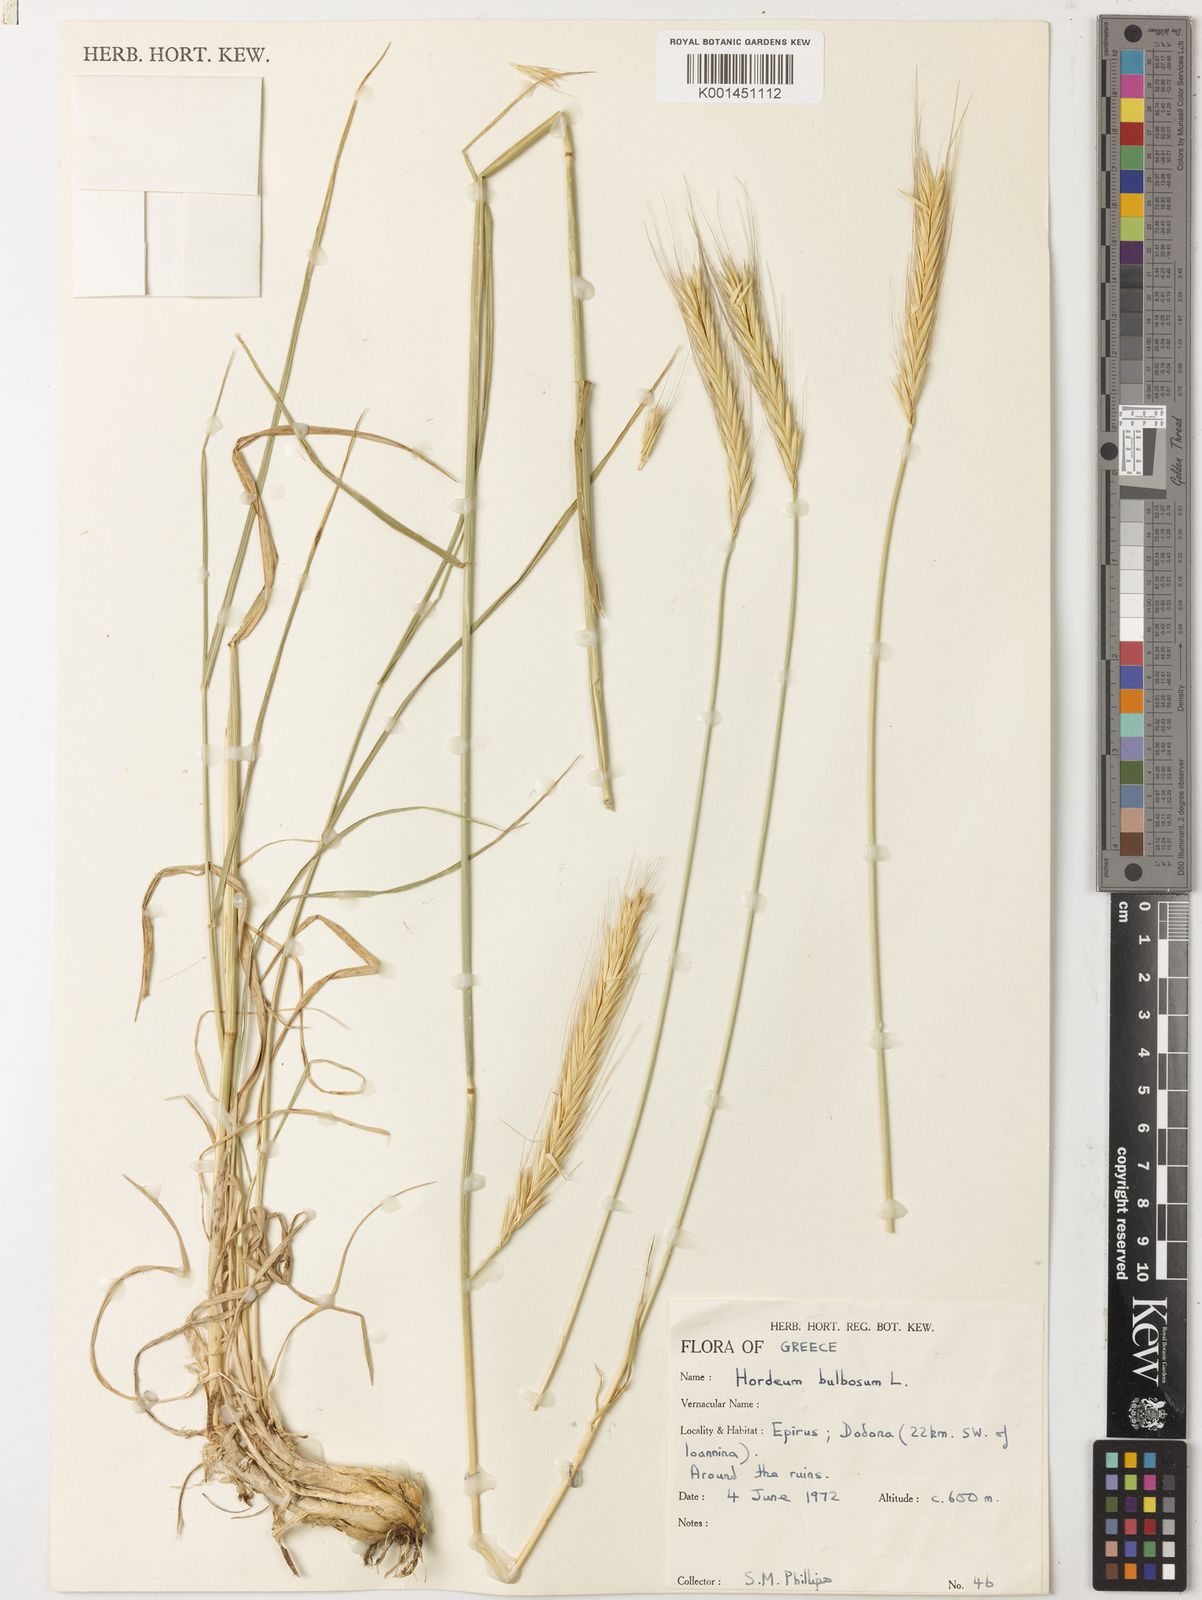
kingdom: Plantae
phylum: Tracheophyta
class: Liliopsida
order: Poales
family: Poaceae
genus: Hordeum
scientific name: Hordeum bulbosum
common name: Bulbous barley
